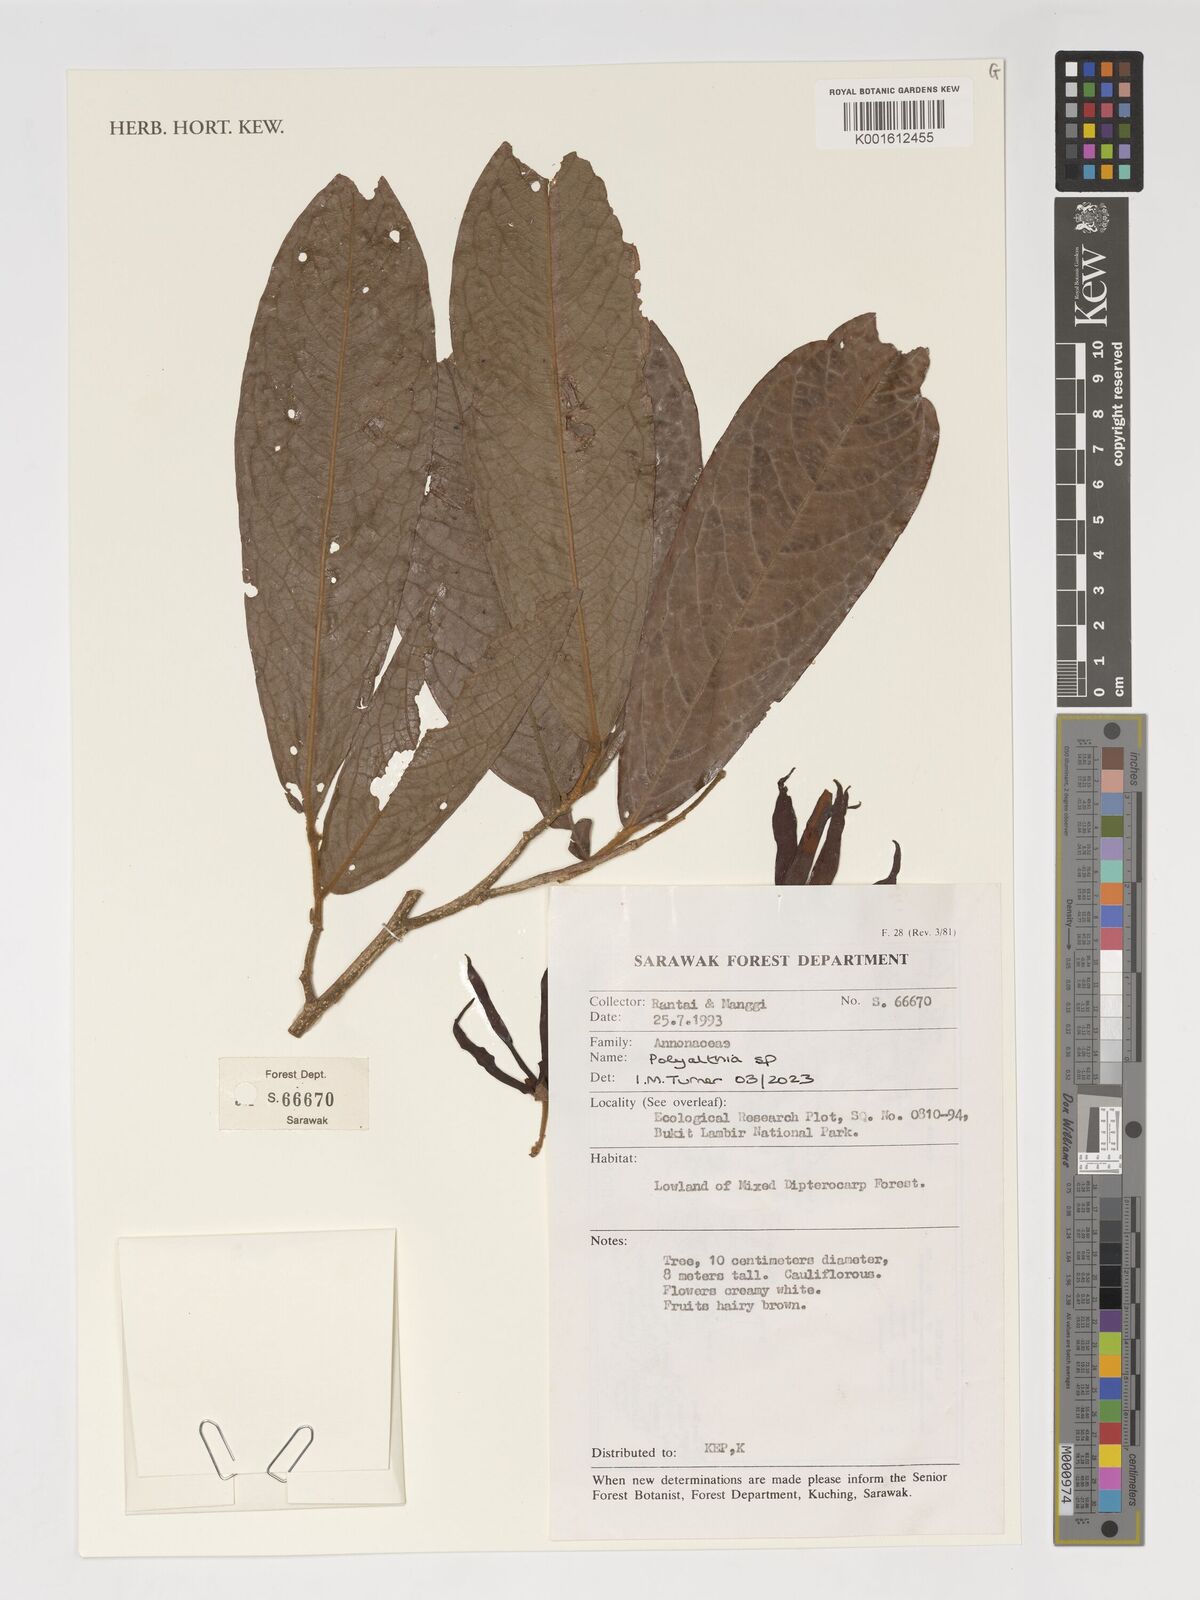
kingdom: Plantae
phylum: Tracheophyta
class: Magnoliopsida
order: Magnoliales
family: Annonaceae
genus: Polyalthia
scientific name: Polyalthia
